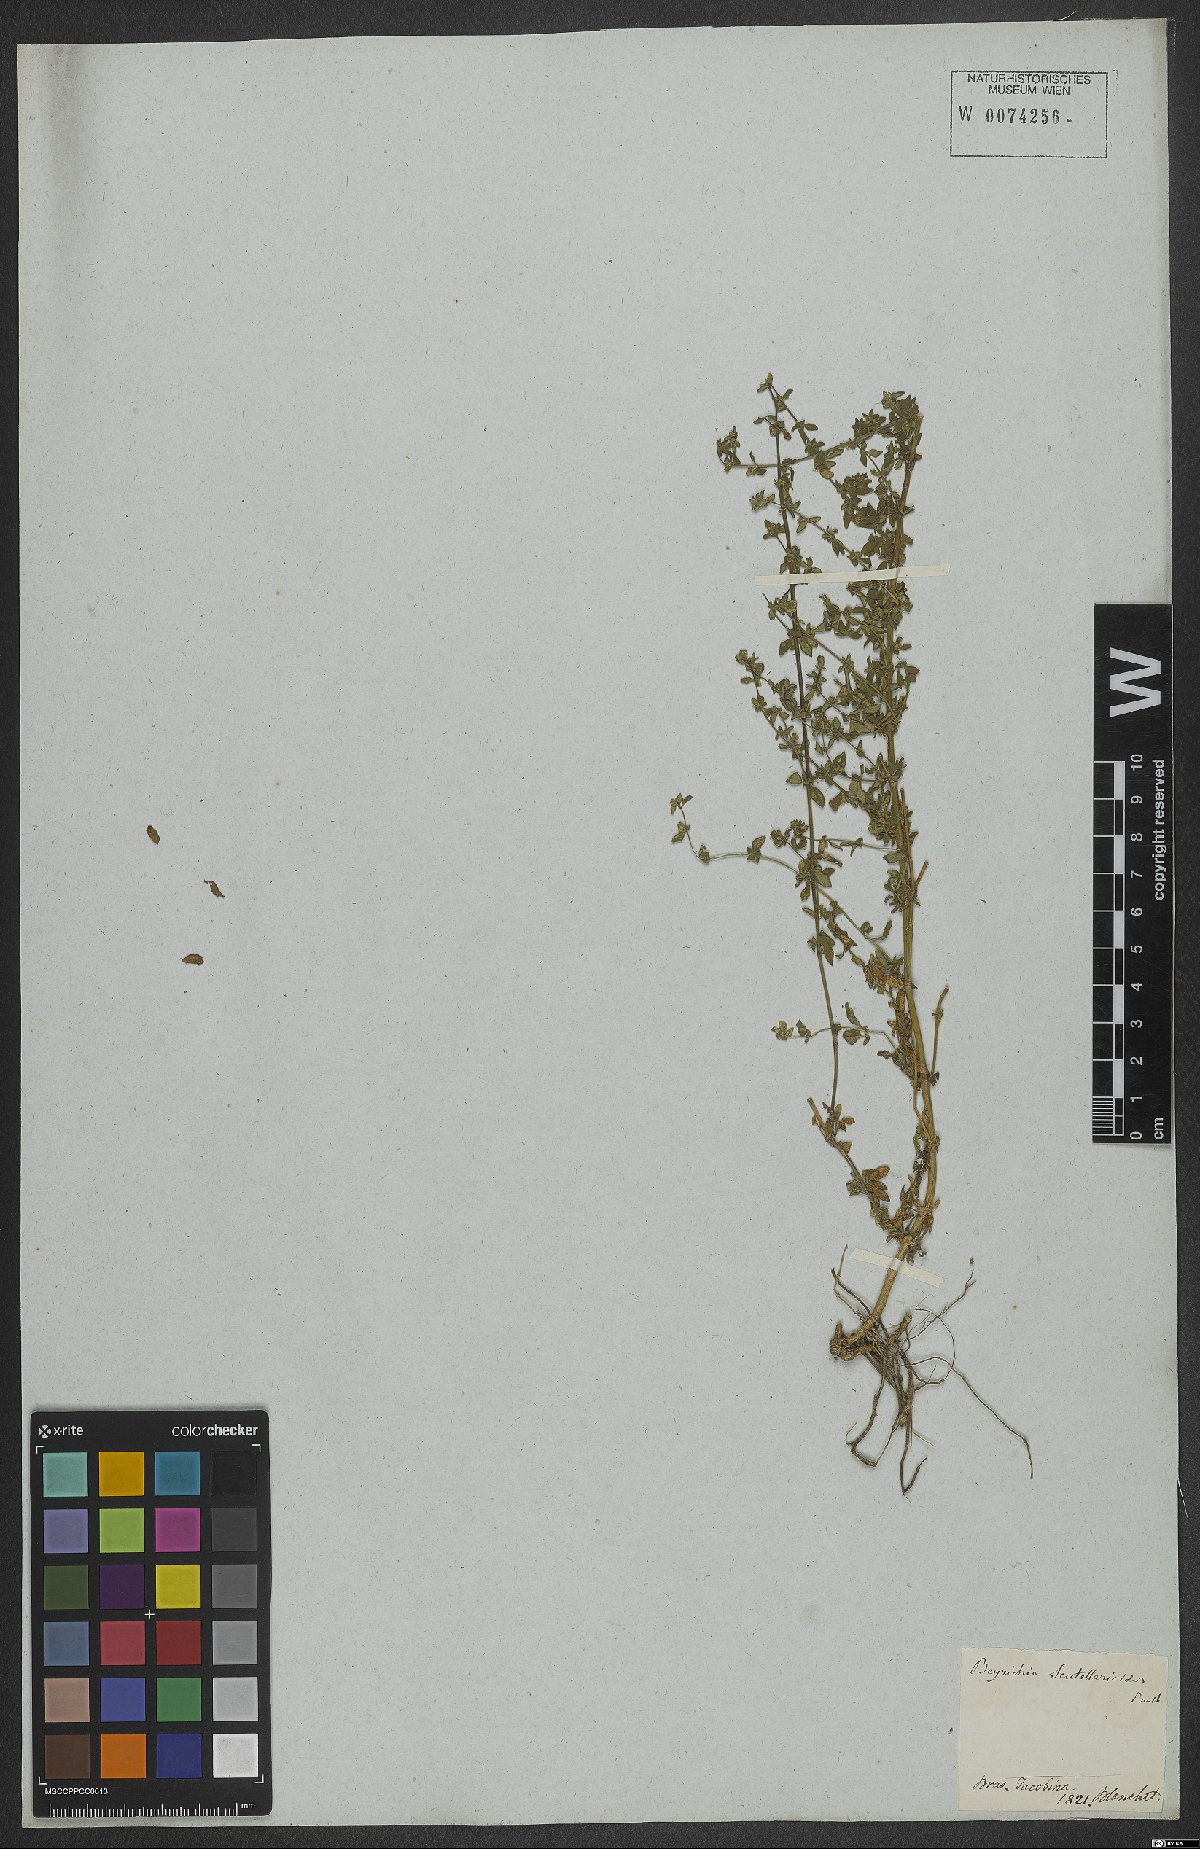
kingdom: Plantae
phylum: Tracheophyta
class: Magnoliopsida
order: Lamiales
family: Plantaginaceae
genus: Matourea
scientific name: Matourea scutellarioides
